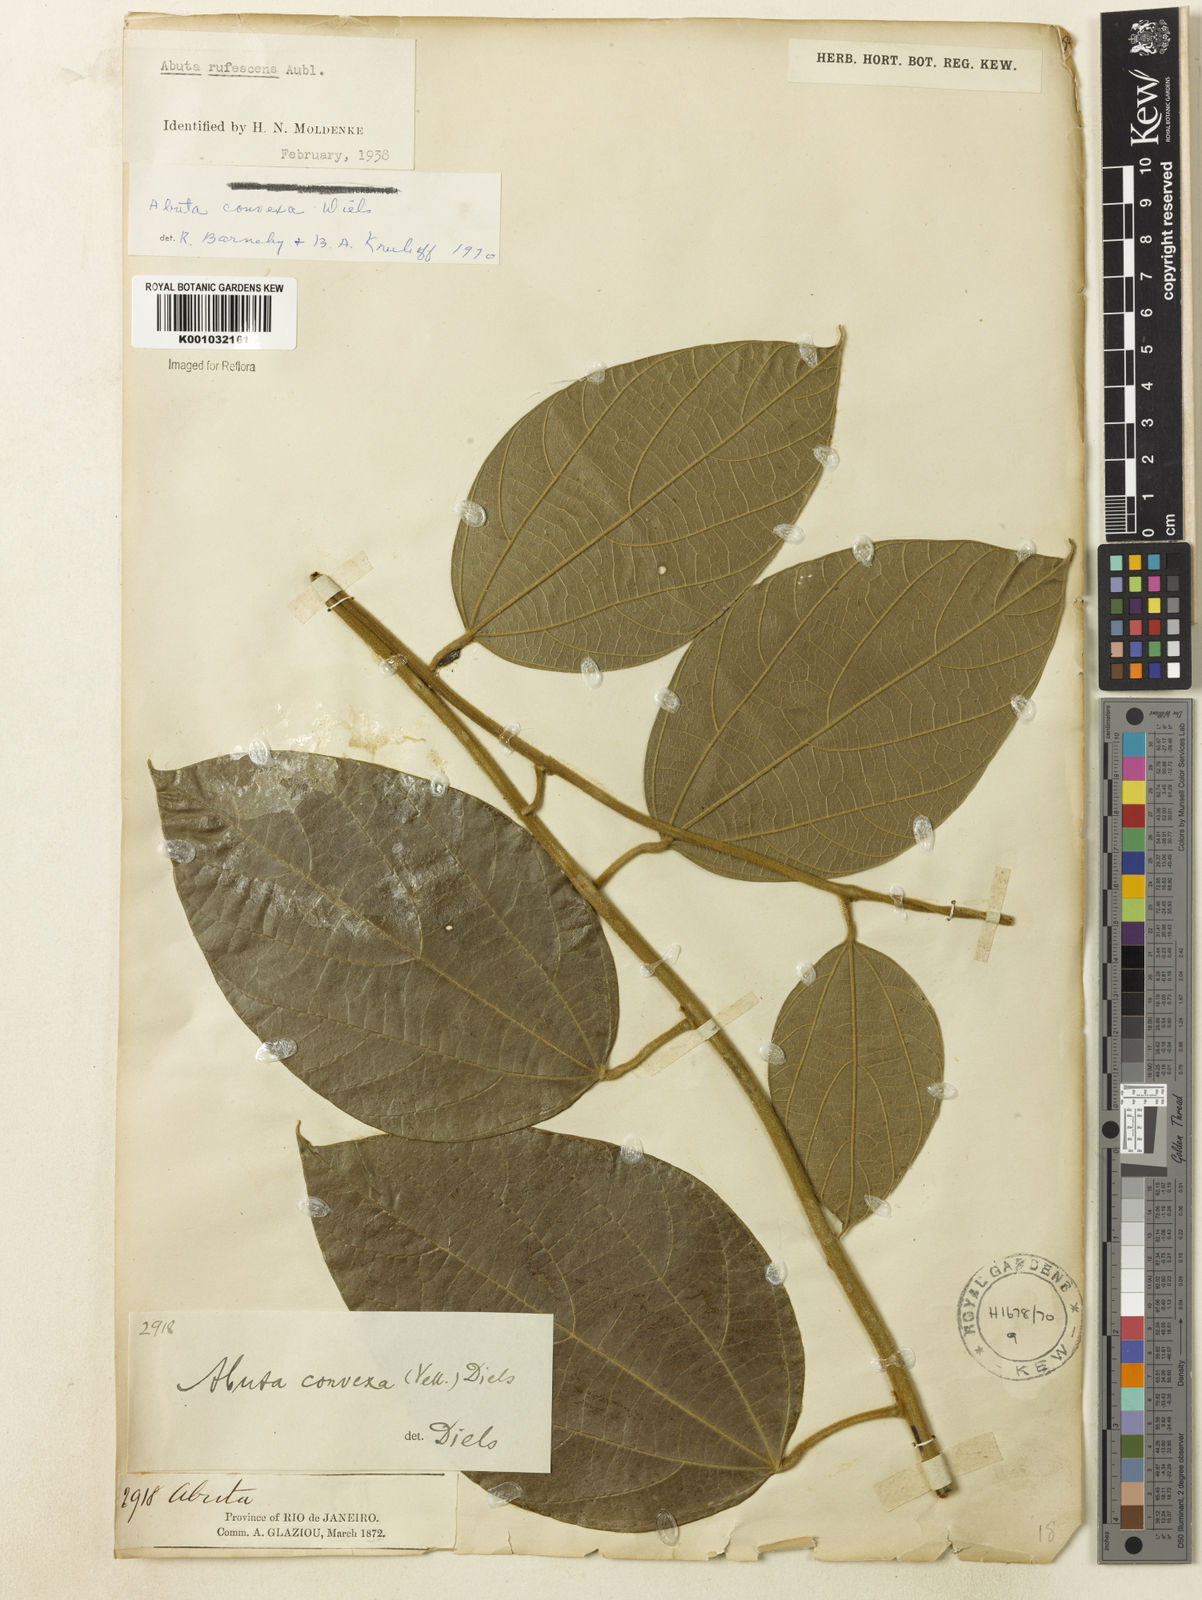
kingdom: Plantae
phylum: Tracheophyta
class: Magnoliopsida
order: Ranunculales
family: Menispermaceae
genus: Abuta
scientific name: Abuta rufescens
